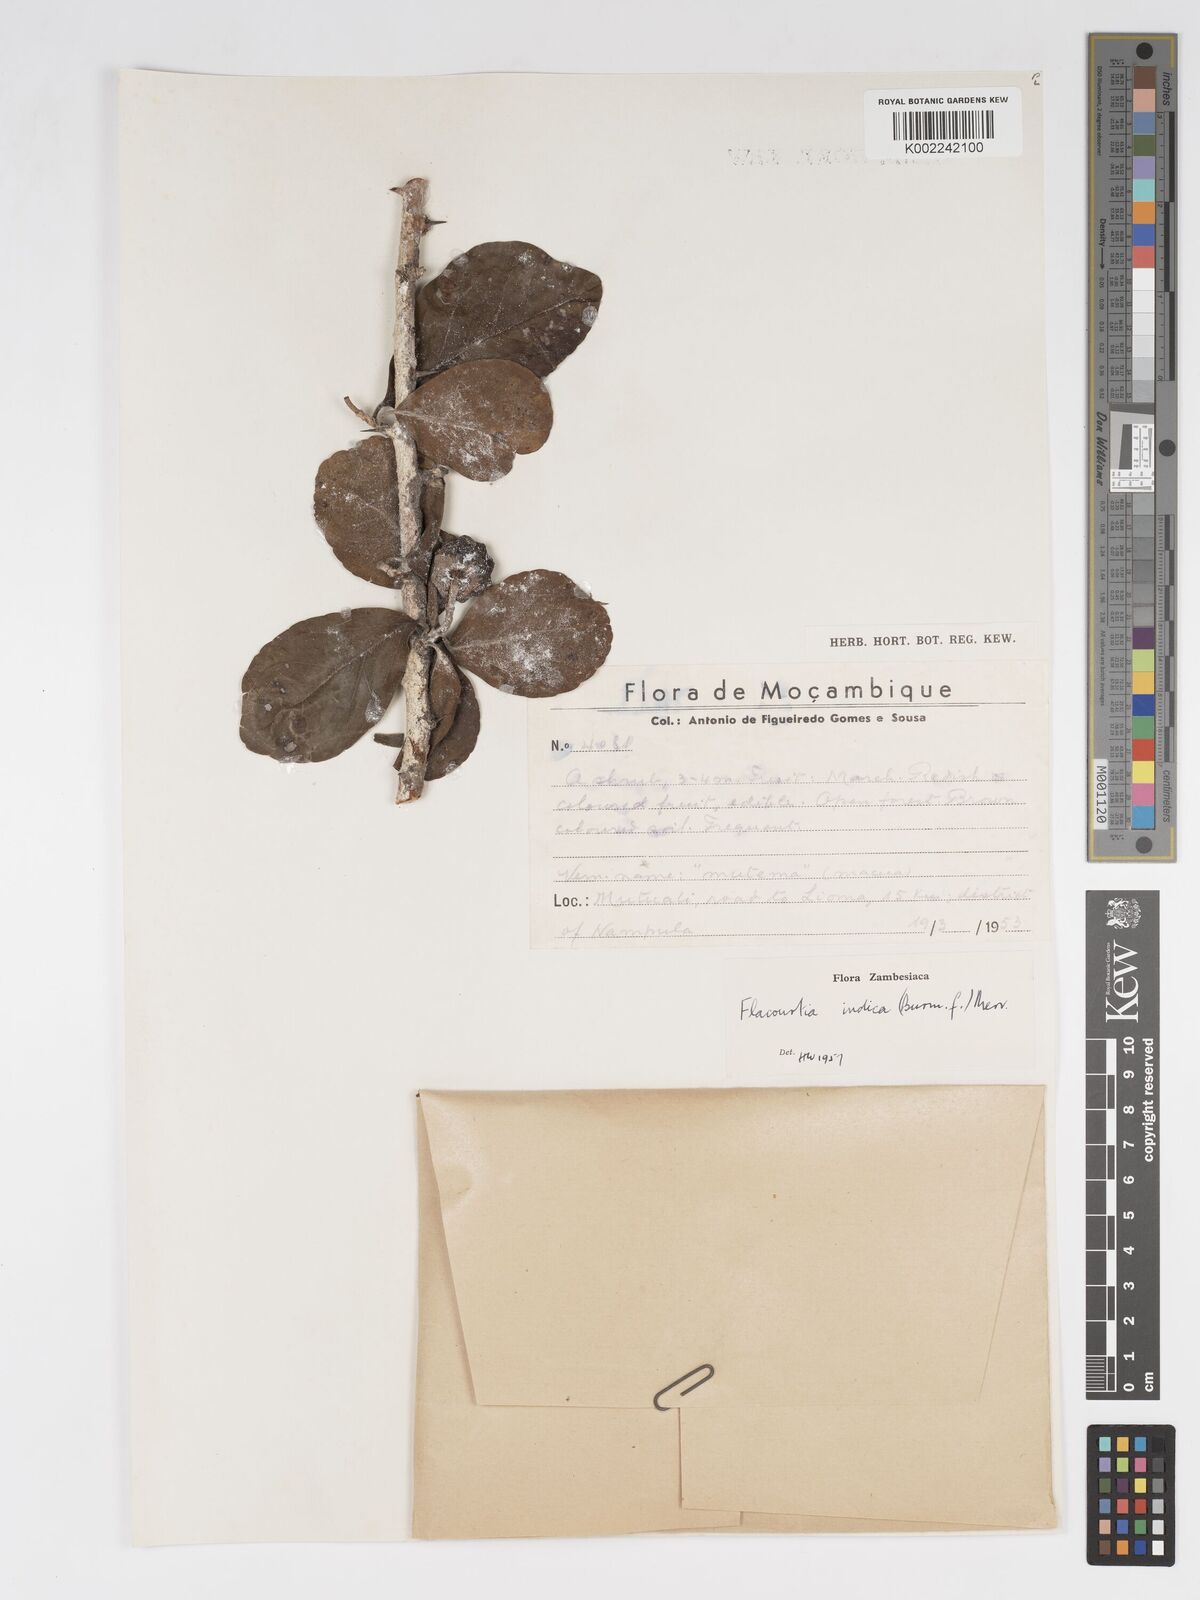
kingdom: Plantae
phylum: Tracheophyta
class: Magnoliopsida
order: Malpighiales
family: Salicaceae
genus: Flacourtia
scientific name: Flacourtia indica
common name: Governor's plum
